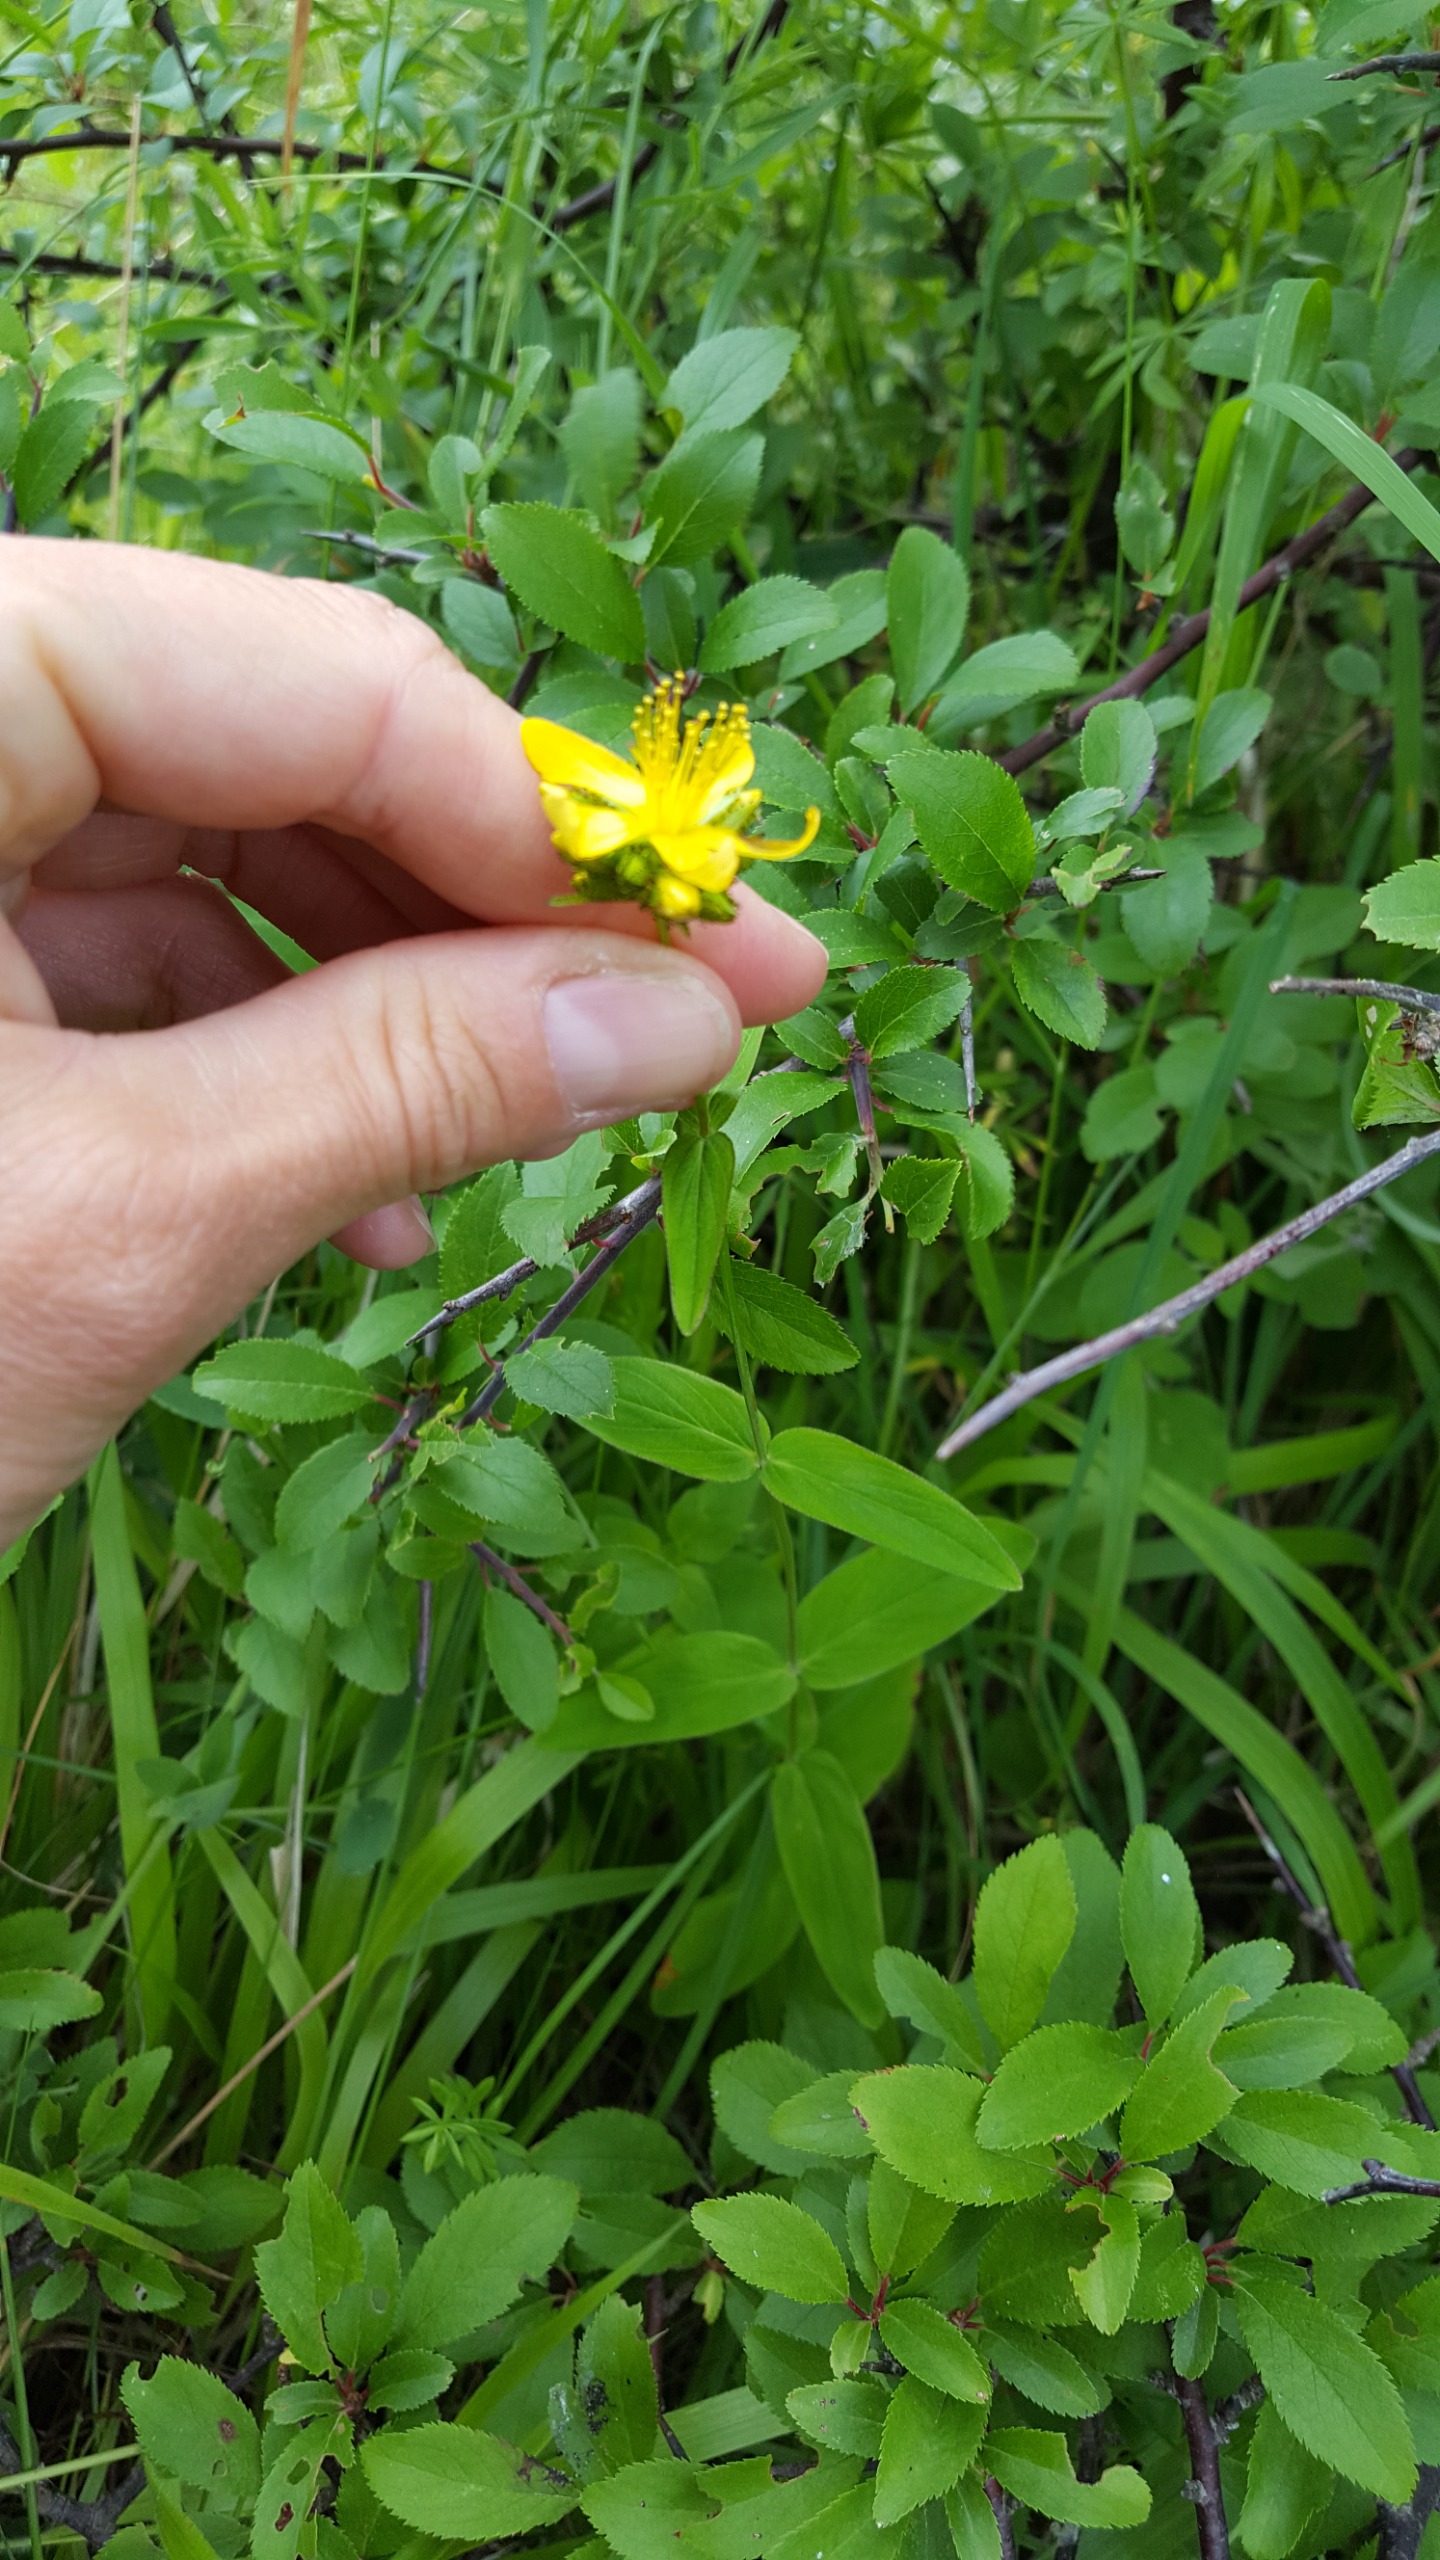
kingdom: Plantae
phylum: Tracheophyta
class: Magnoliopsida
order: Malpighiales
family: Hypericaceae
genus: Hypericum
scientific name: Hypericum montanum
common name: Bjerg-perikon
